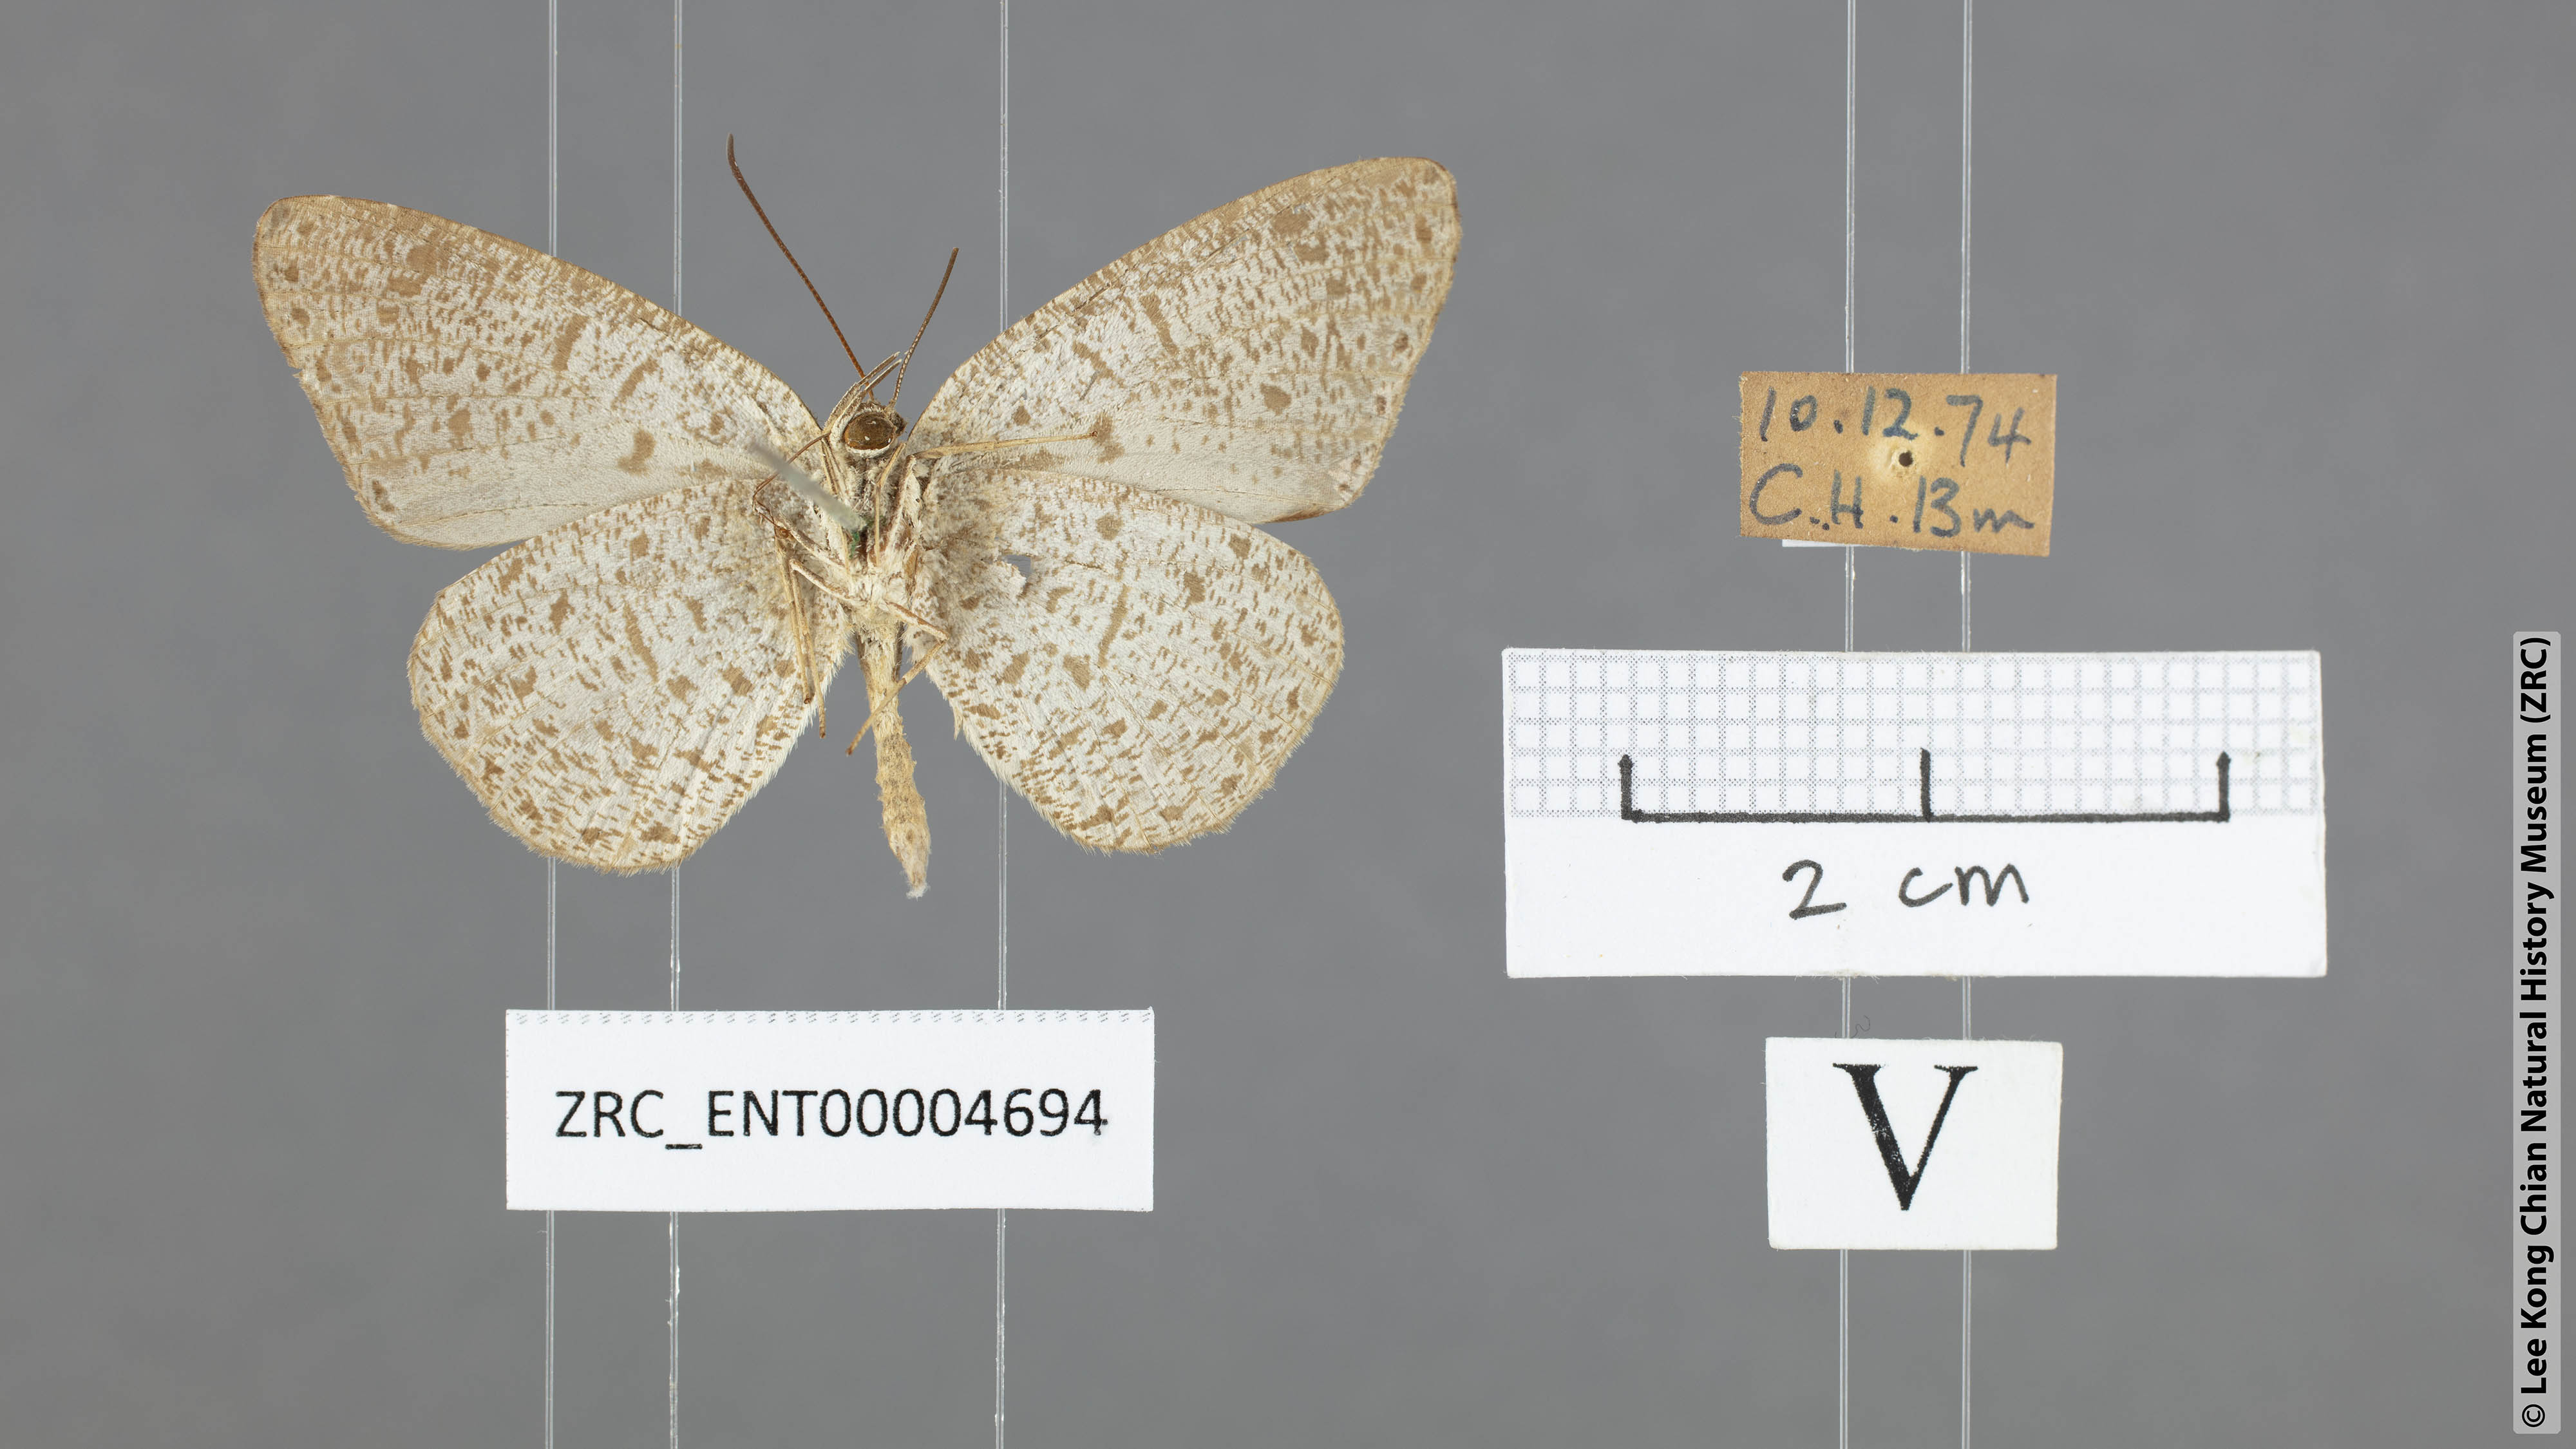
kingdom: Animalia
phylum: Arthropoda
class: Insecta
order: Lepidoptera
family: Lycaenidae
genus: Allotinus
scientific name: Allotinus leogoron
